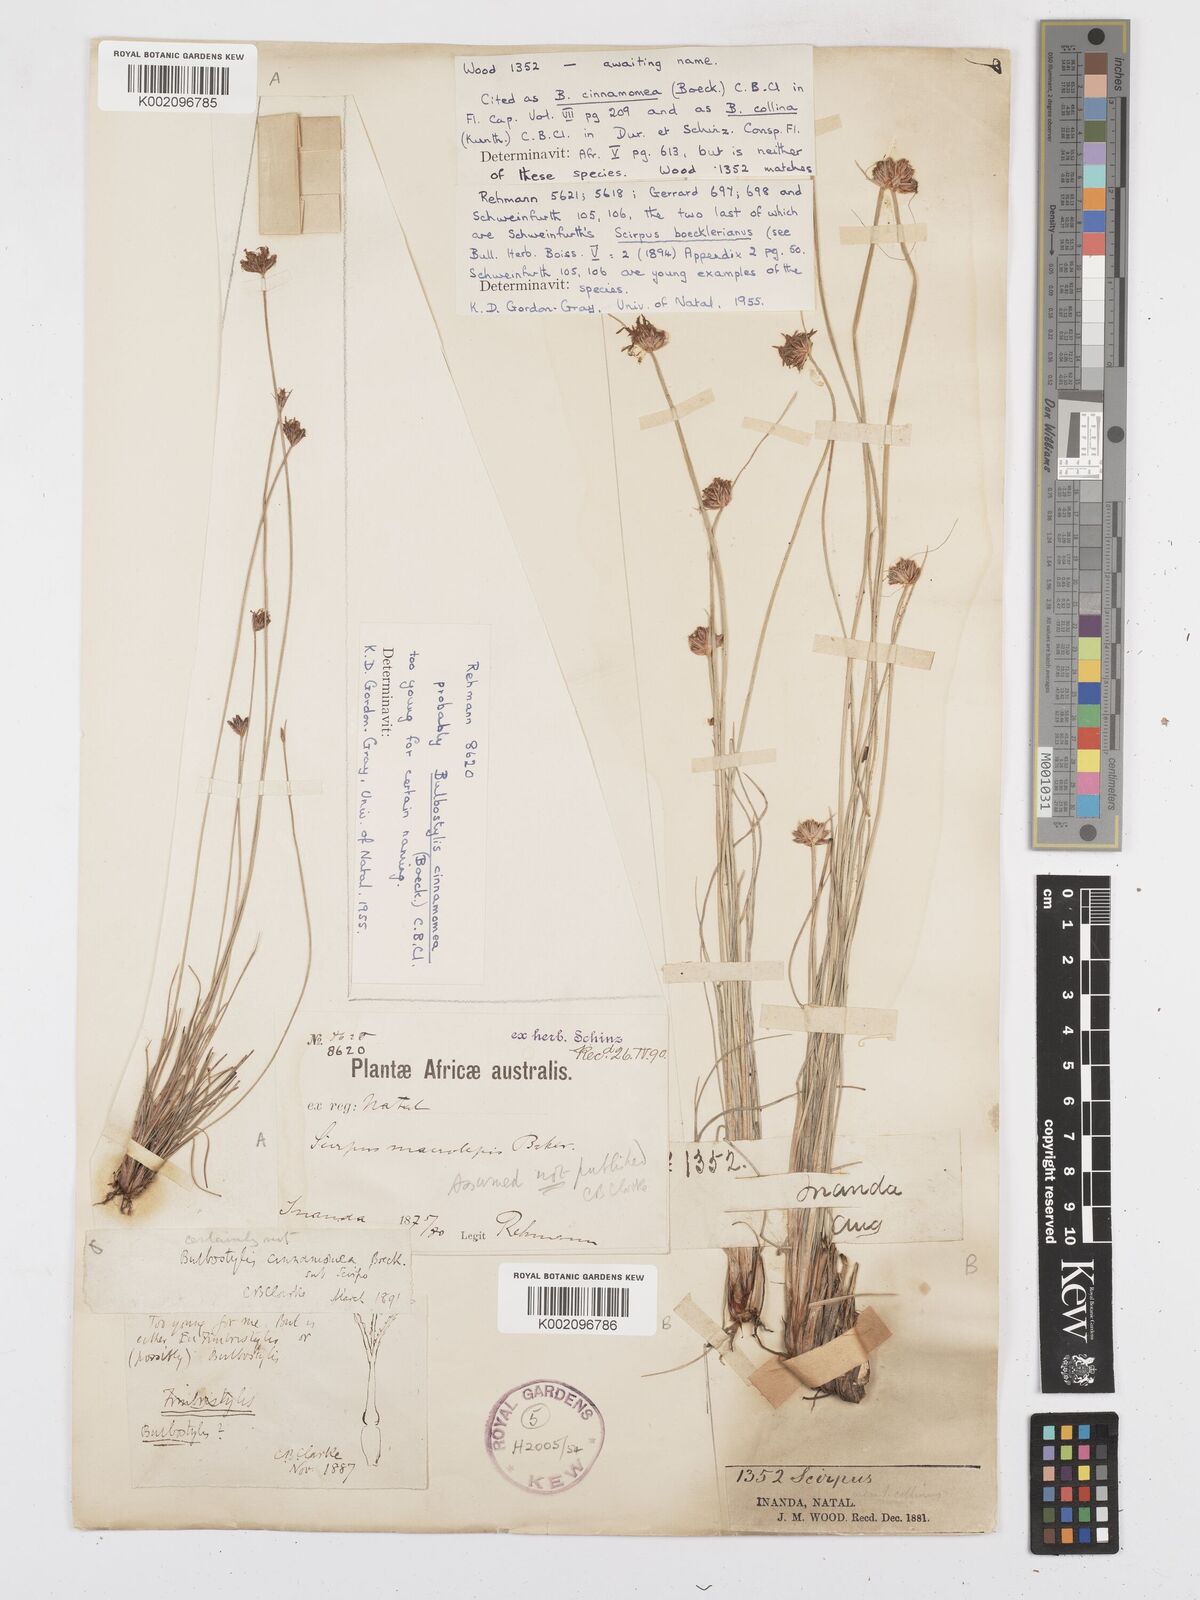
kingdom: Plantae
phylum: Tracheophyta
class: Liliopsida
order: Poales
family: Cyperaceae
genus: Bulbostylis
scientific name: Bulbostylis
